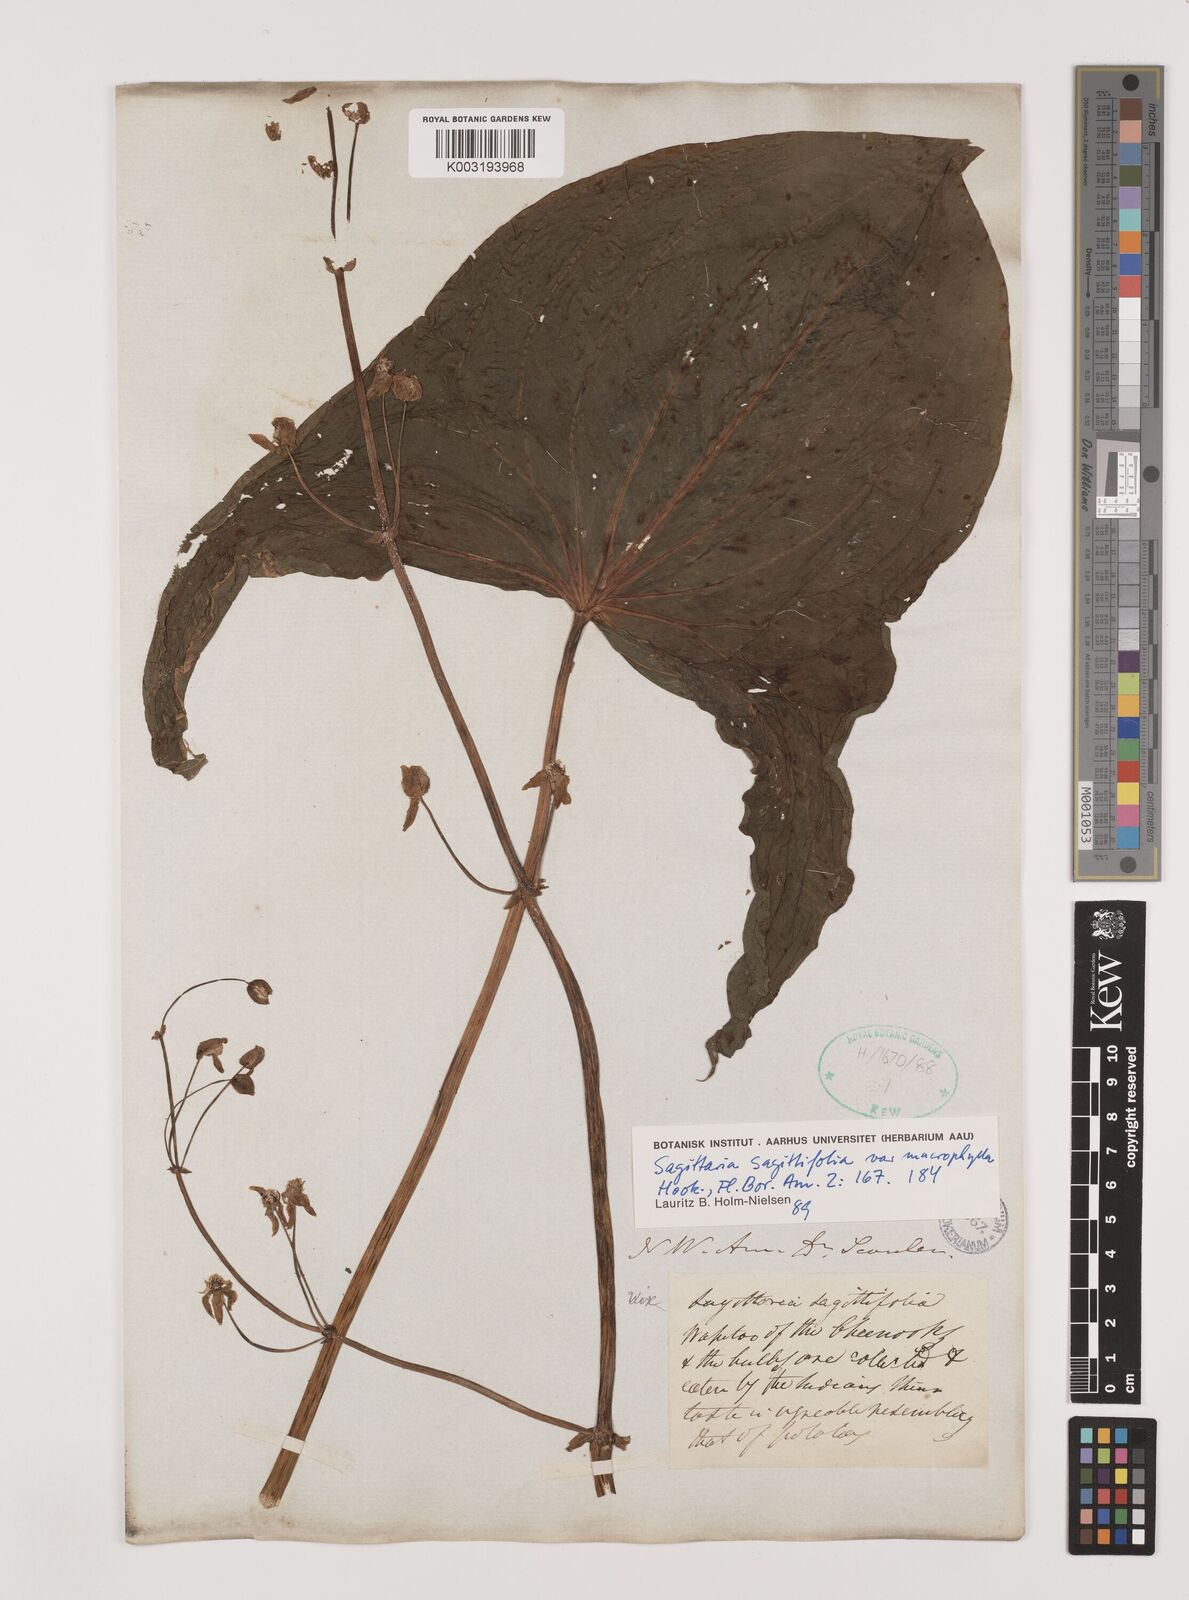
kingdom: Plantae
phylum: Tracheophyta
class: Liliopsida
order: Alismatales
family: Alismataceae
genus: Sagittaria
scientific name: Sagittaria sagittifolia
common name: Arrowhead
